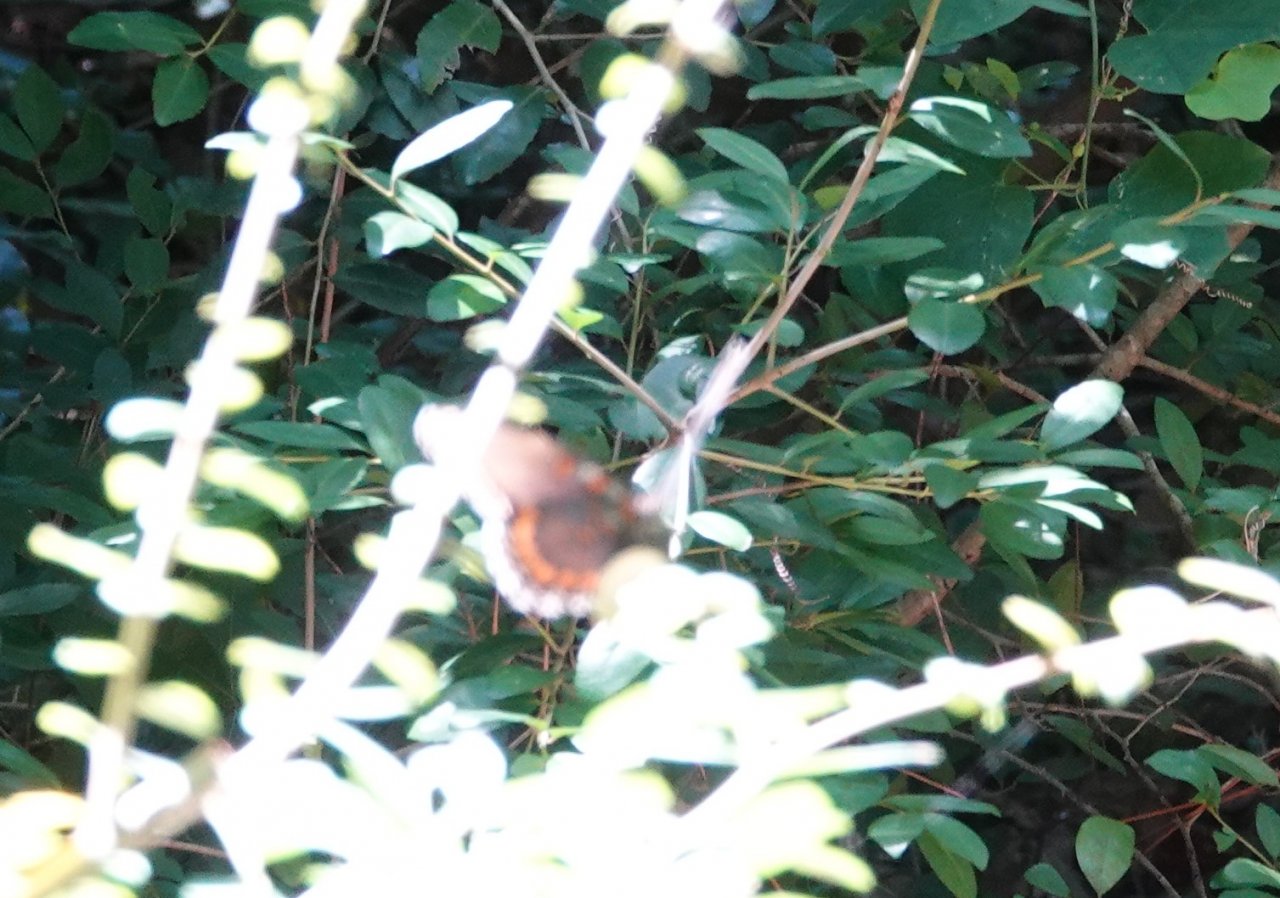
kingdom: Animalia
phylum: Arthropoda
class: Insecta
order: Lepidoptera
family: Nymphalidae
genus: Limenitis
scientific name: Limenitis arthemis
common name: Red-spotted Admiral
